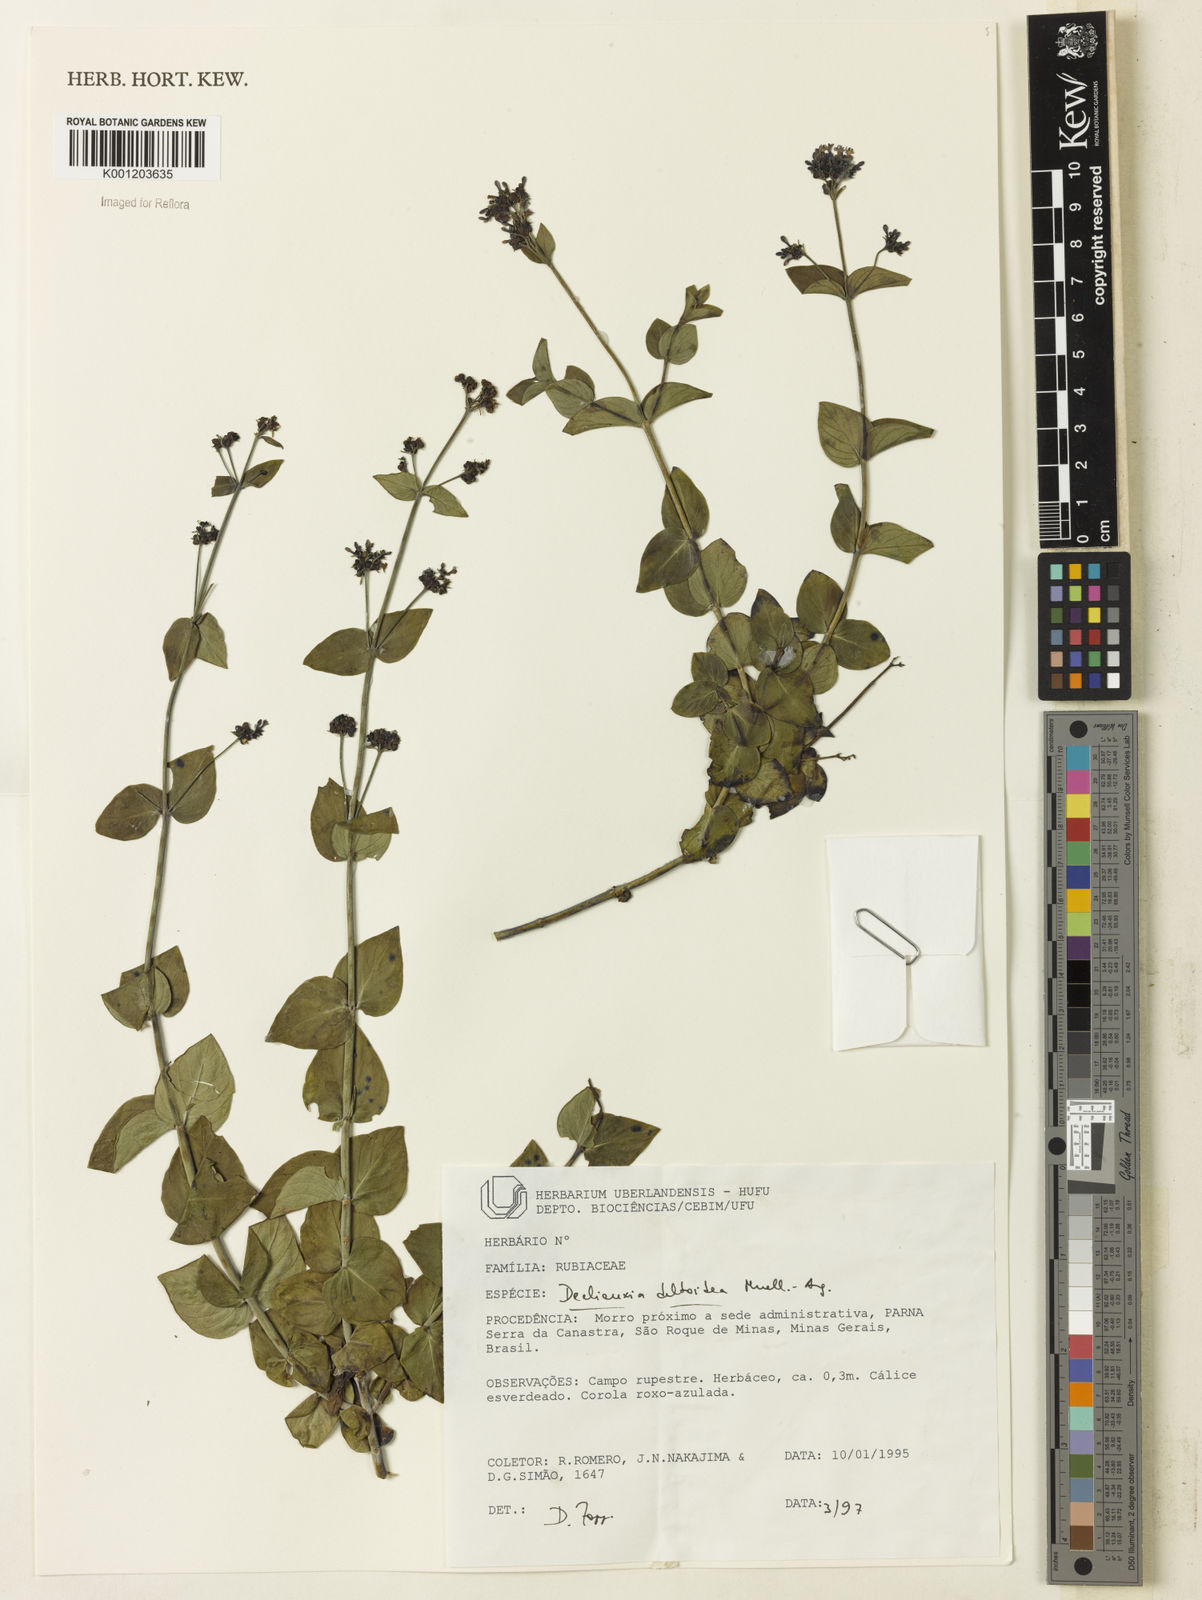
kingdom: Plantae
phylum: Tracheophyta
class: Magnoliopsida
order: Gentianales
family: Rubiaceae
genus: Declieuxia
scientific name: Declieuxia
